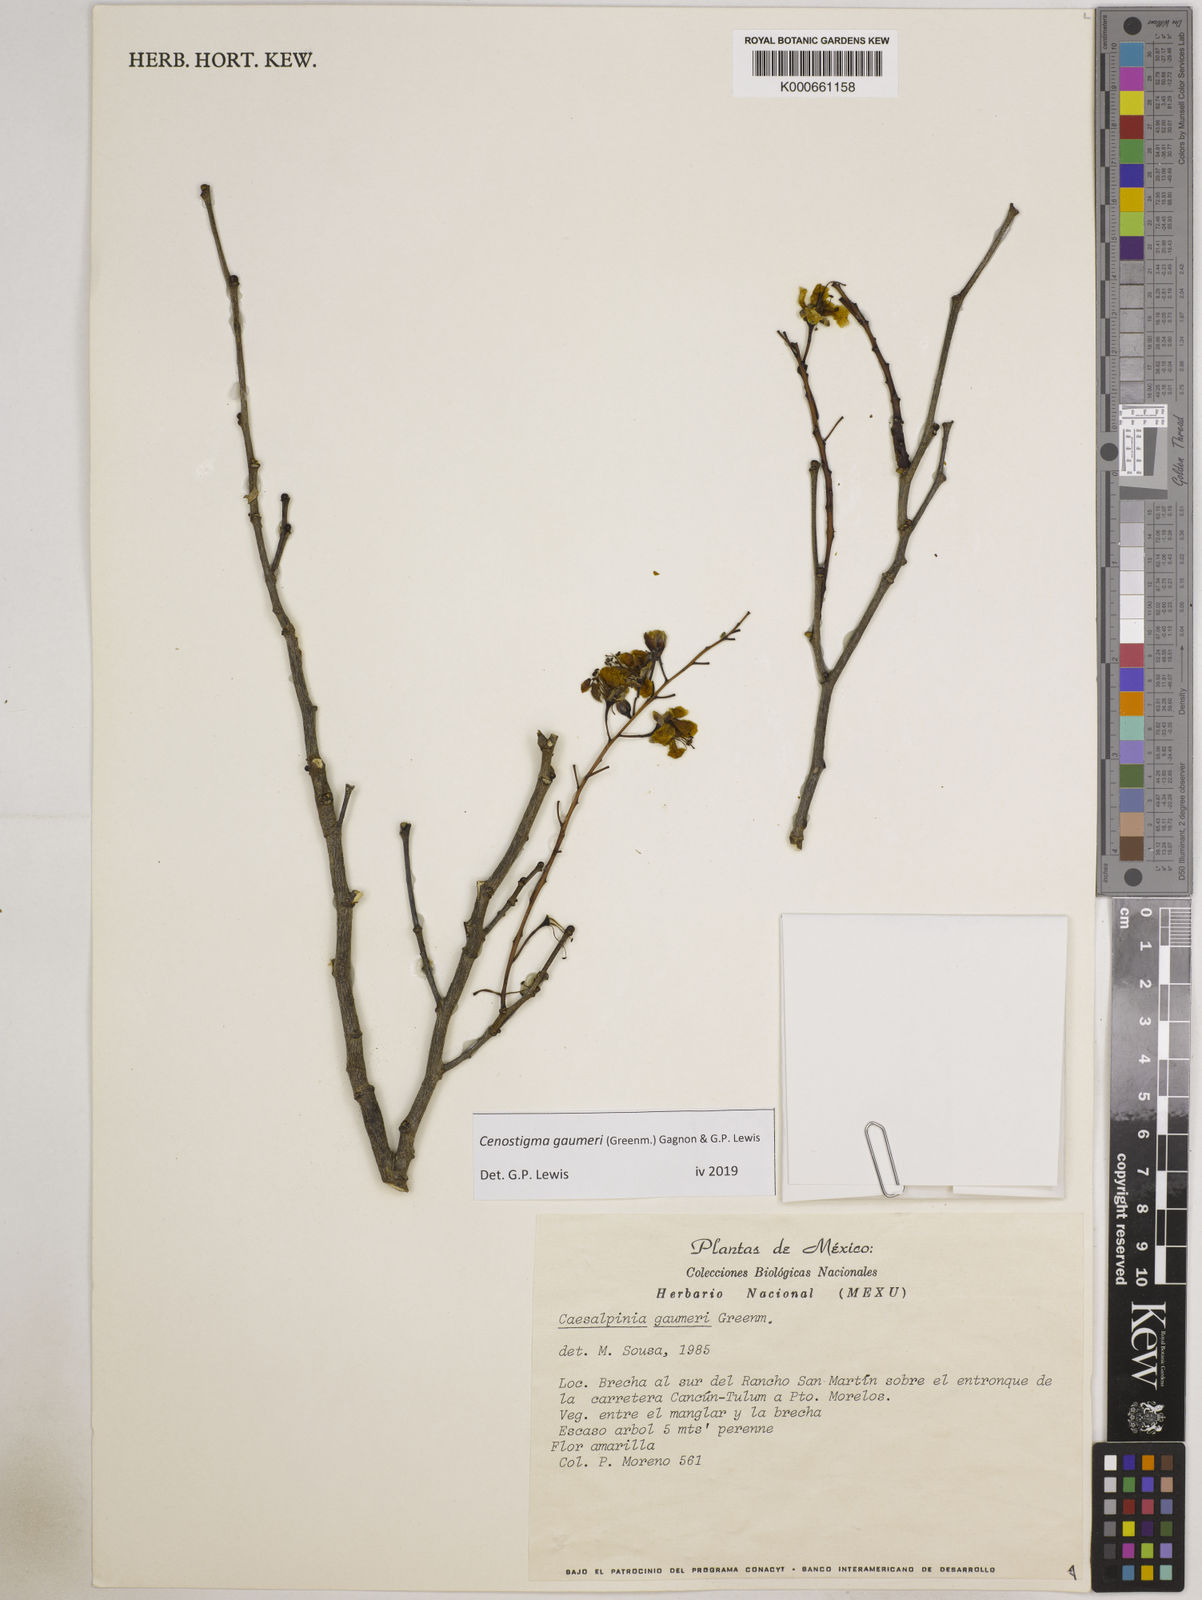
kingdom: Plantae
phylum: Tracheophyta
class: Magnoliopsida
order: Fabales
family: Fabaceae
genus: Cenostigma
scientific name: Cenostigma gaumeri
